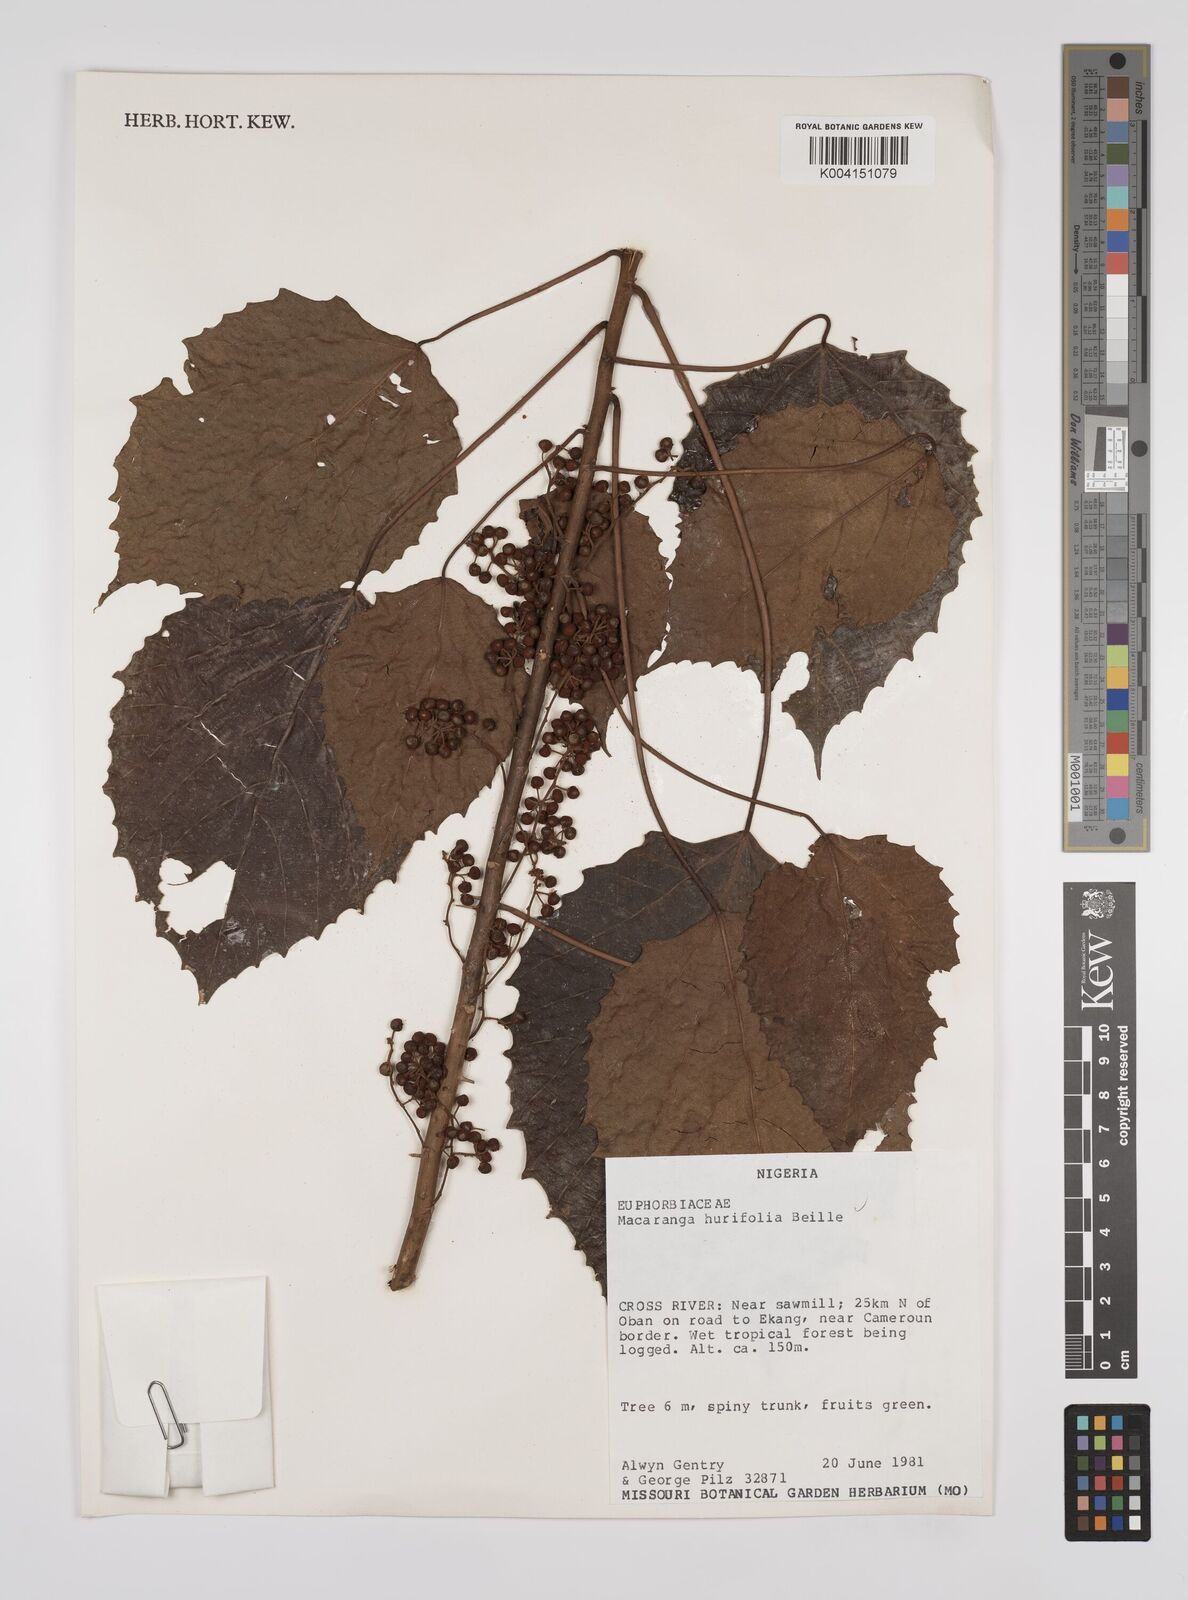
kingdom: Plantae
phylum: Tracheophyta
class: Magnoliopsida
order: Malpighiales
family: Euphorbiaceae
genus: Macaranga
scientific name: Macaranga hurifolia
